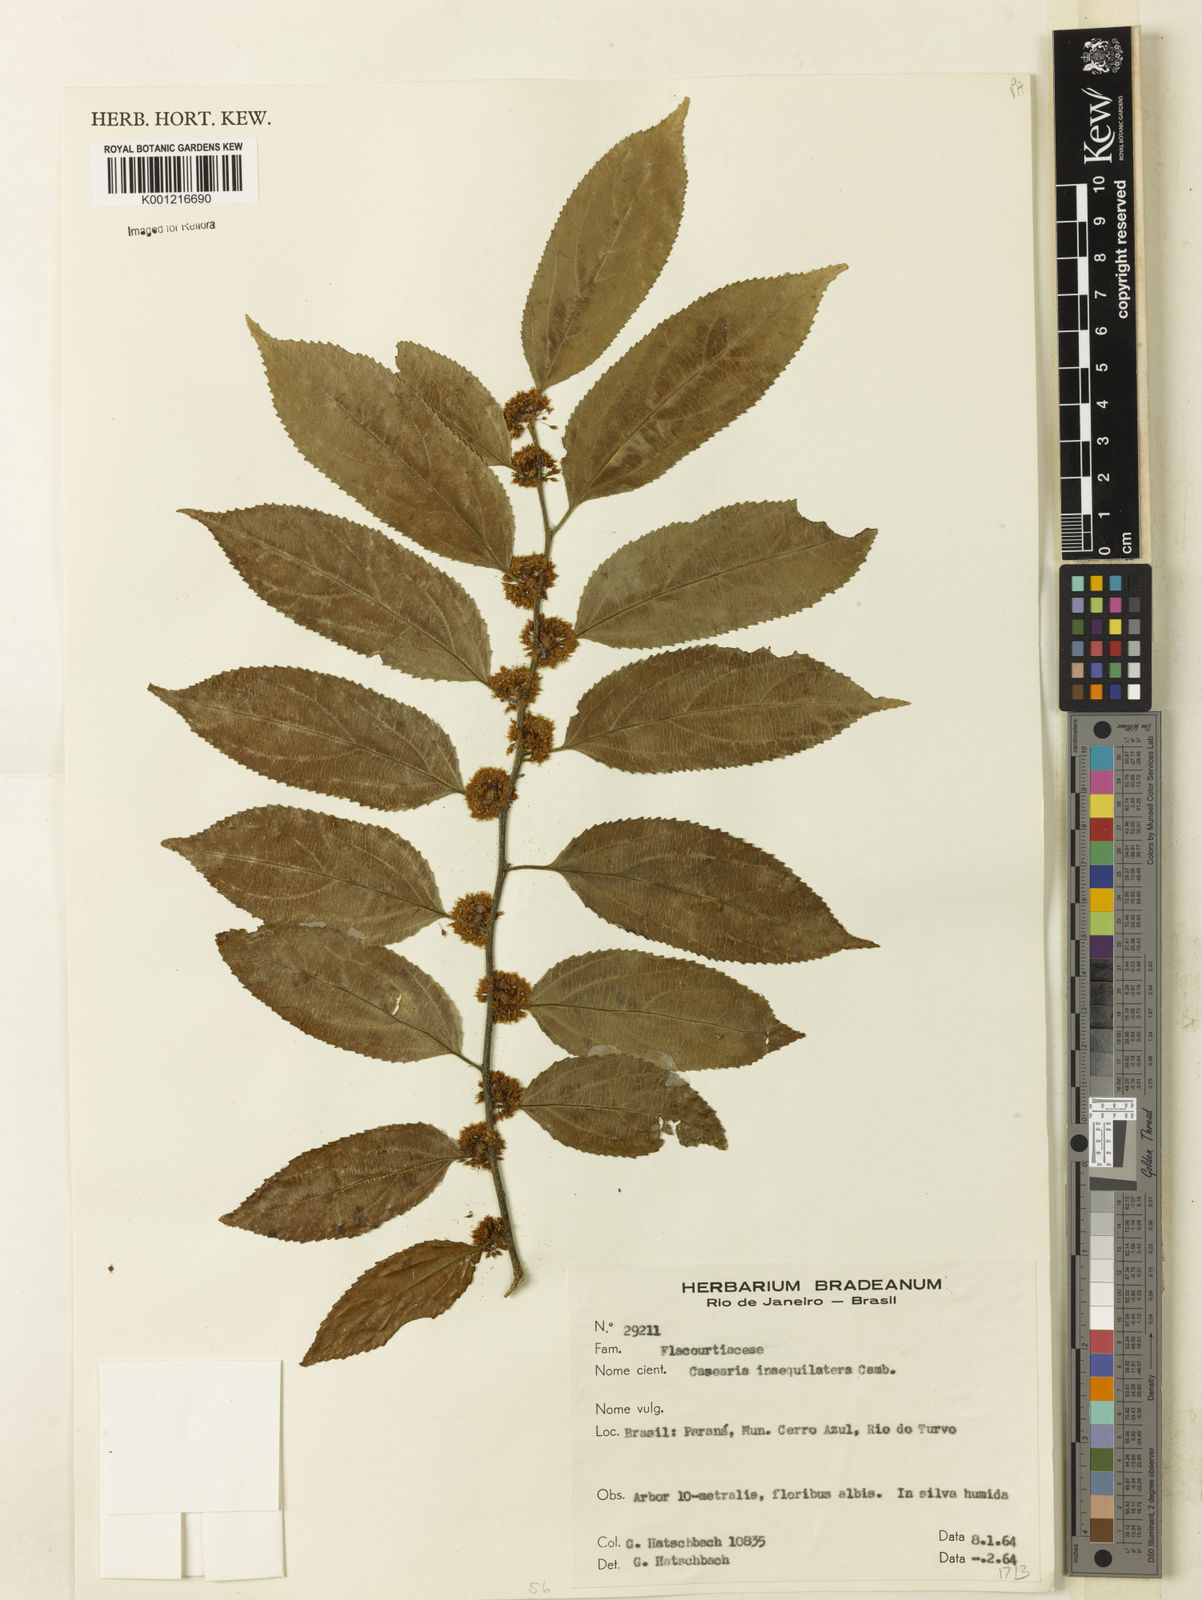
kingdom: Plantae
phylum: Tracheophyta
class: Magnoliopsida
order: Malpighiales
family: Salicaceae
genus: Casearia
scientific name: Casearia obliqua
